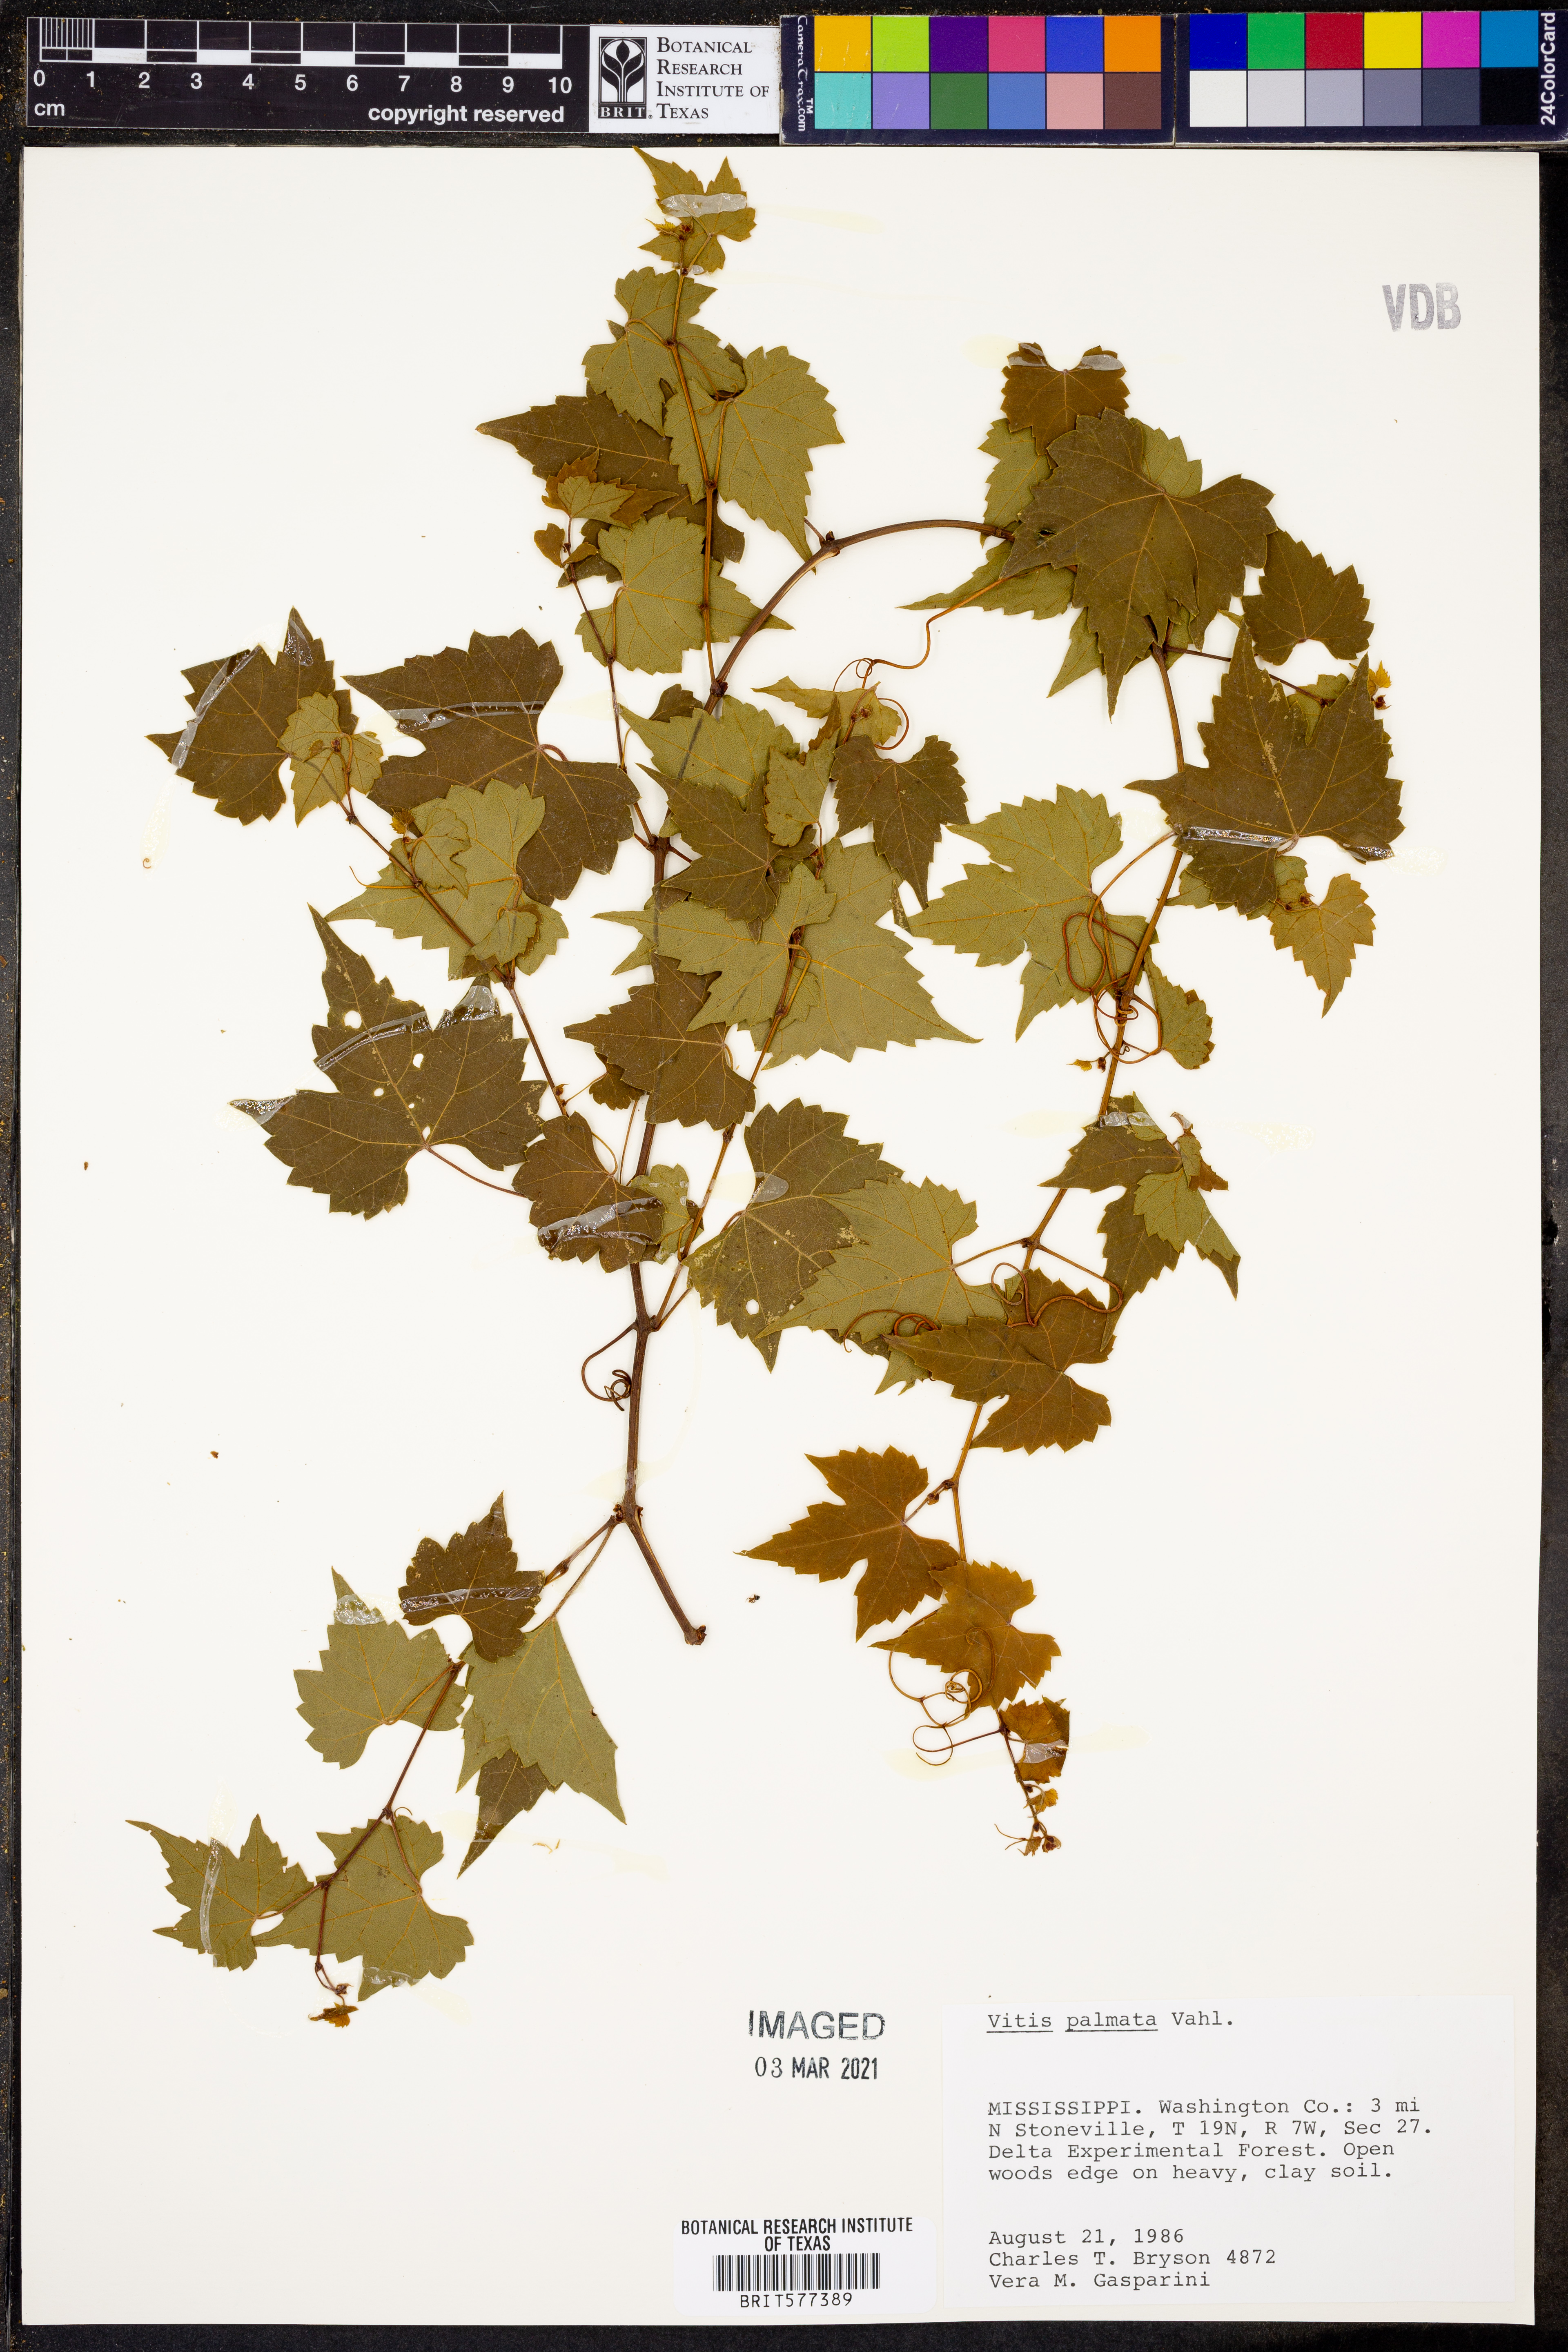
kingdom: Plantae
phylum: Tracheophyta
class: Magnoliopsida
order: Vitales
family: Vitaceae
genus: Vitis
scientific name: Vitis palmata
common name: Catbird grape
